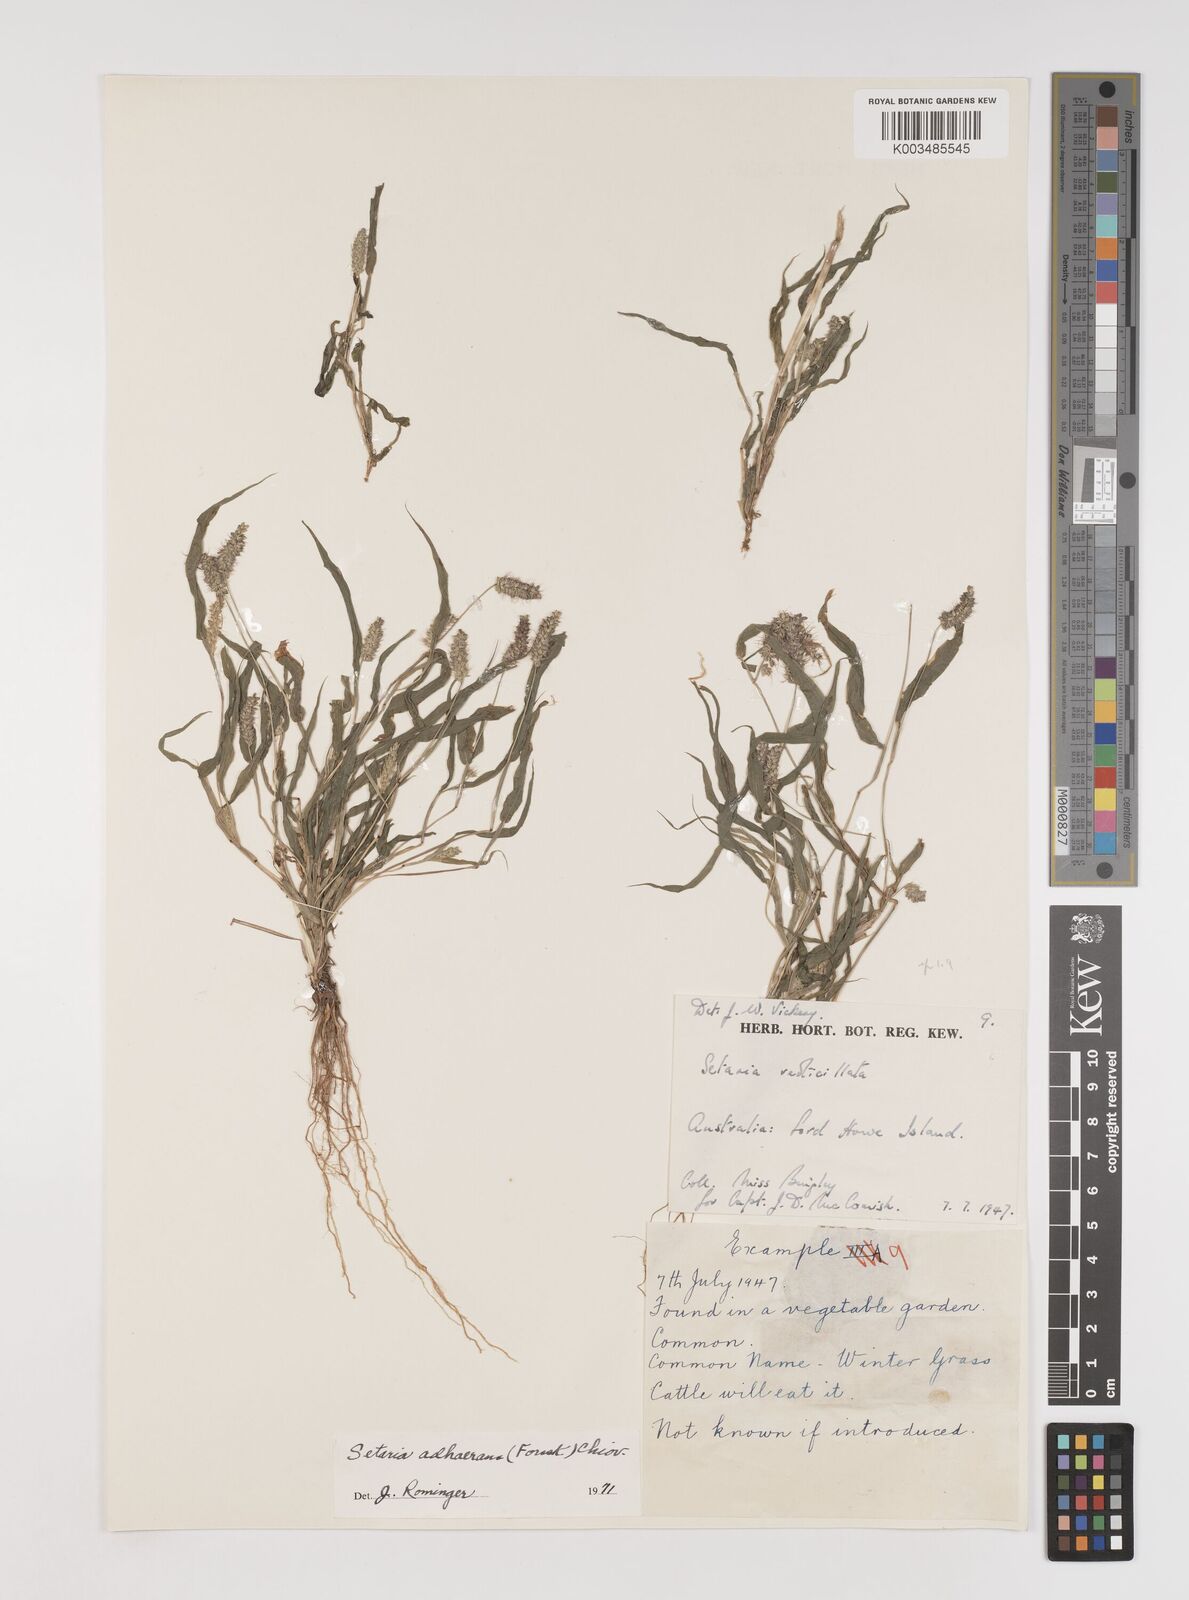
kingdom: Plantae
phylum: Tracheophyta
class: Liliopsida
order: Poales
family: Poaceae
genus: Setaria
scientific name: Setaria verticillata
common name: Hooked bristlegrass
